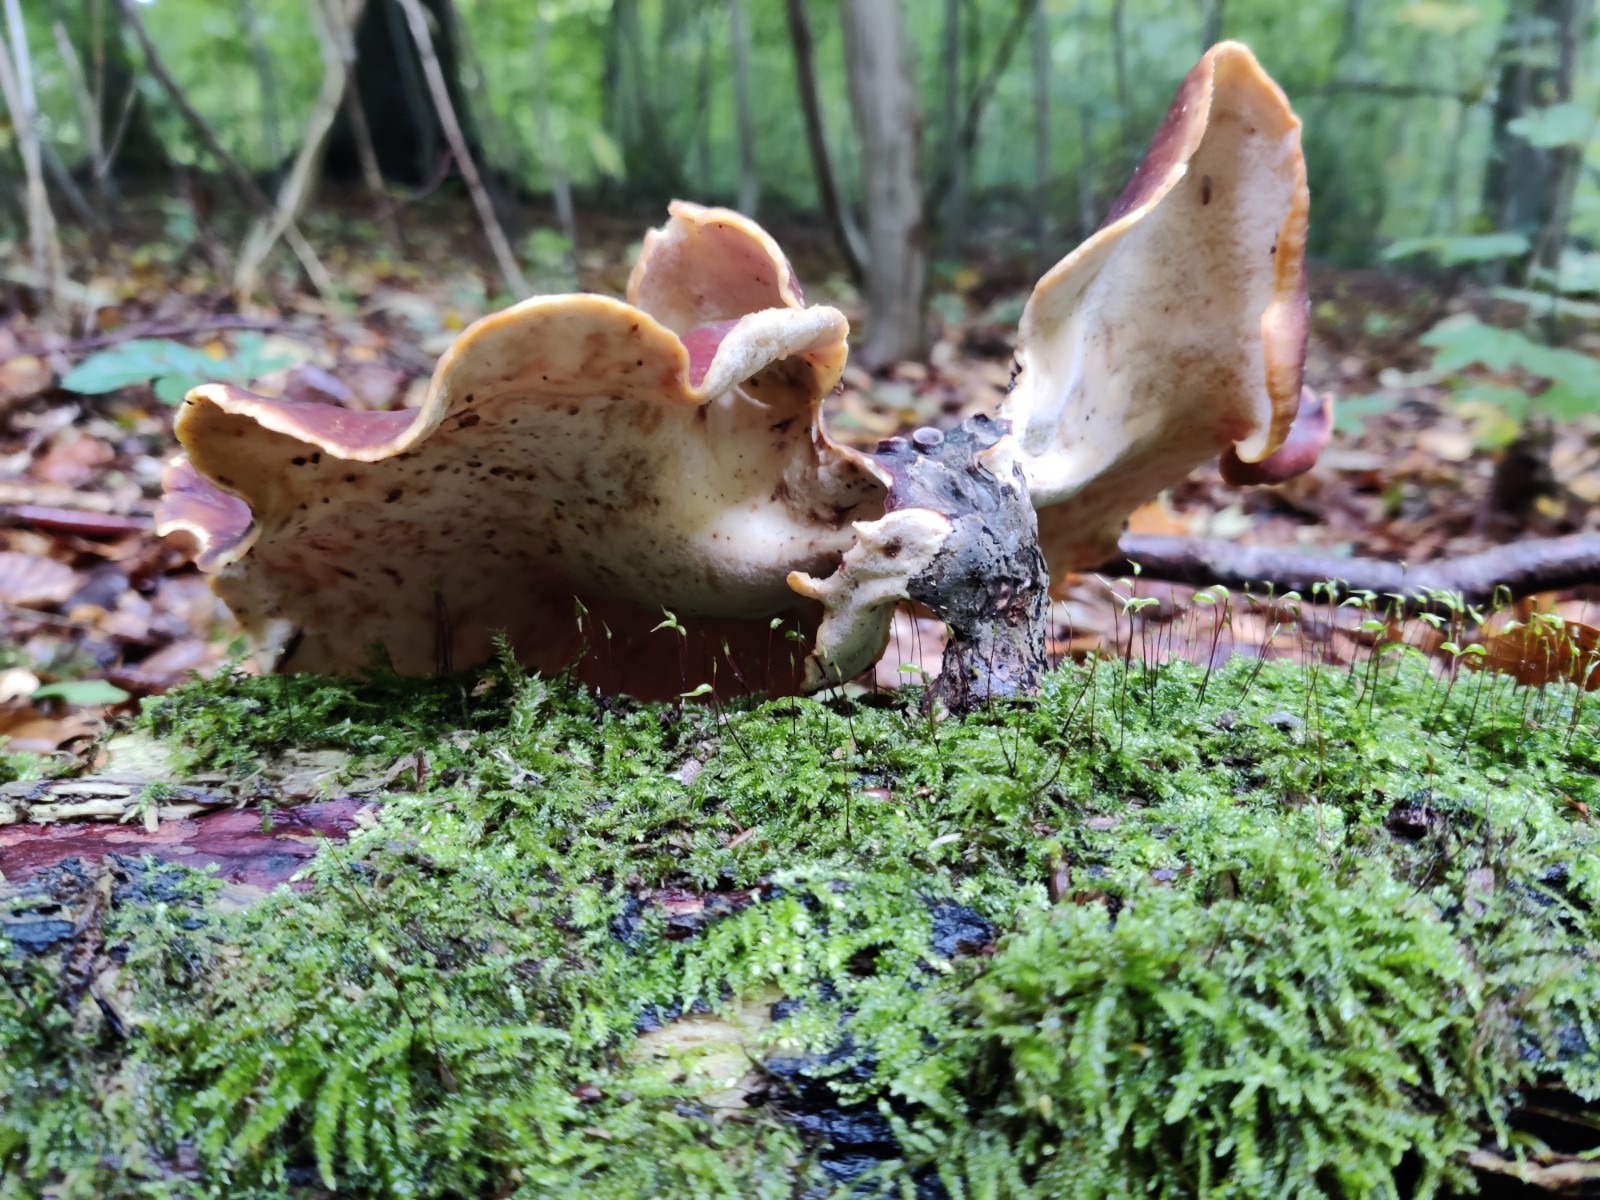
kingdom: Fungi
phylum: Basidiomycota
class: Agaricomycetes
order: Polyporales
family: Polyporaceae
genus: Picipes
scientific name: Picipes badius
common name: kastaniebrun stilkporesvamp
